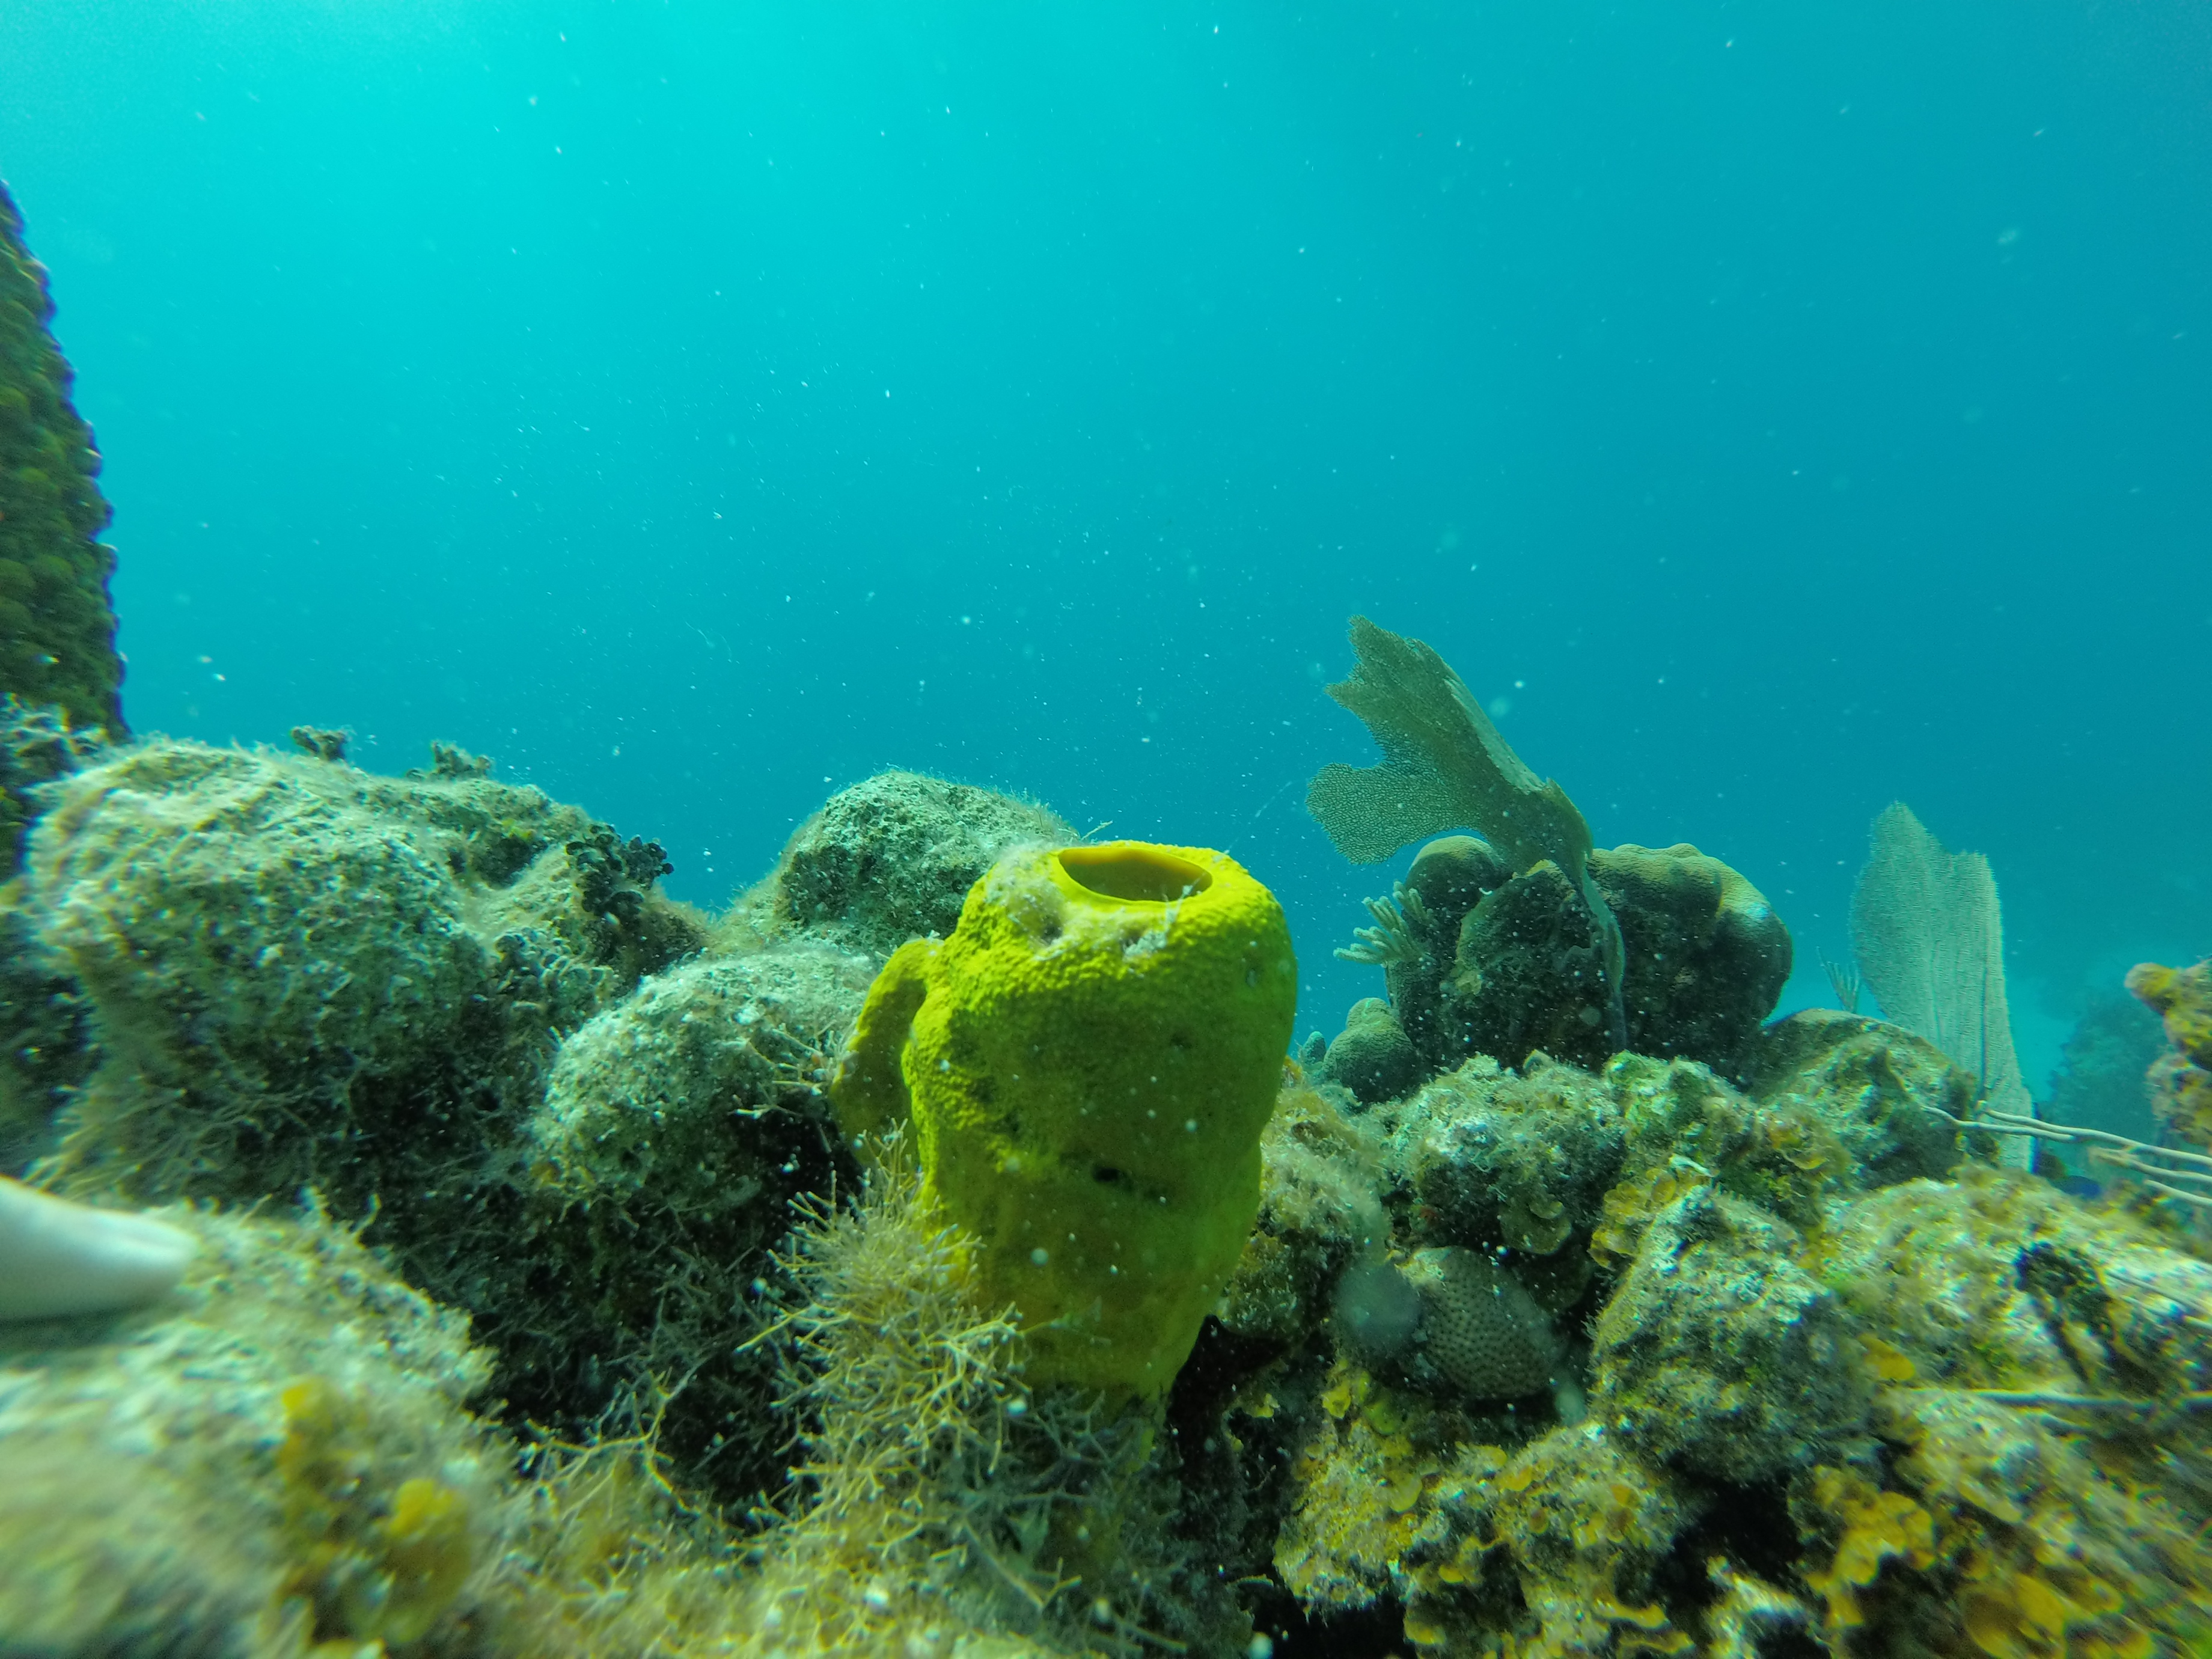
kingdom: Animalia
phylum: Porifera
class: Demospongiae
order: Verongiida
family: Aplysinidae
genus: Aplysina
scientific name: Aplysina fistularis
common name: Candle sponge
